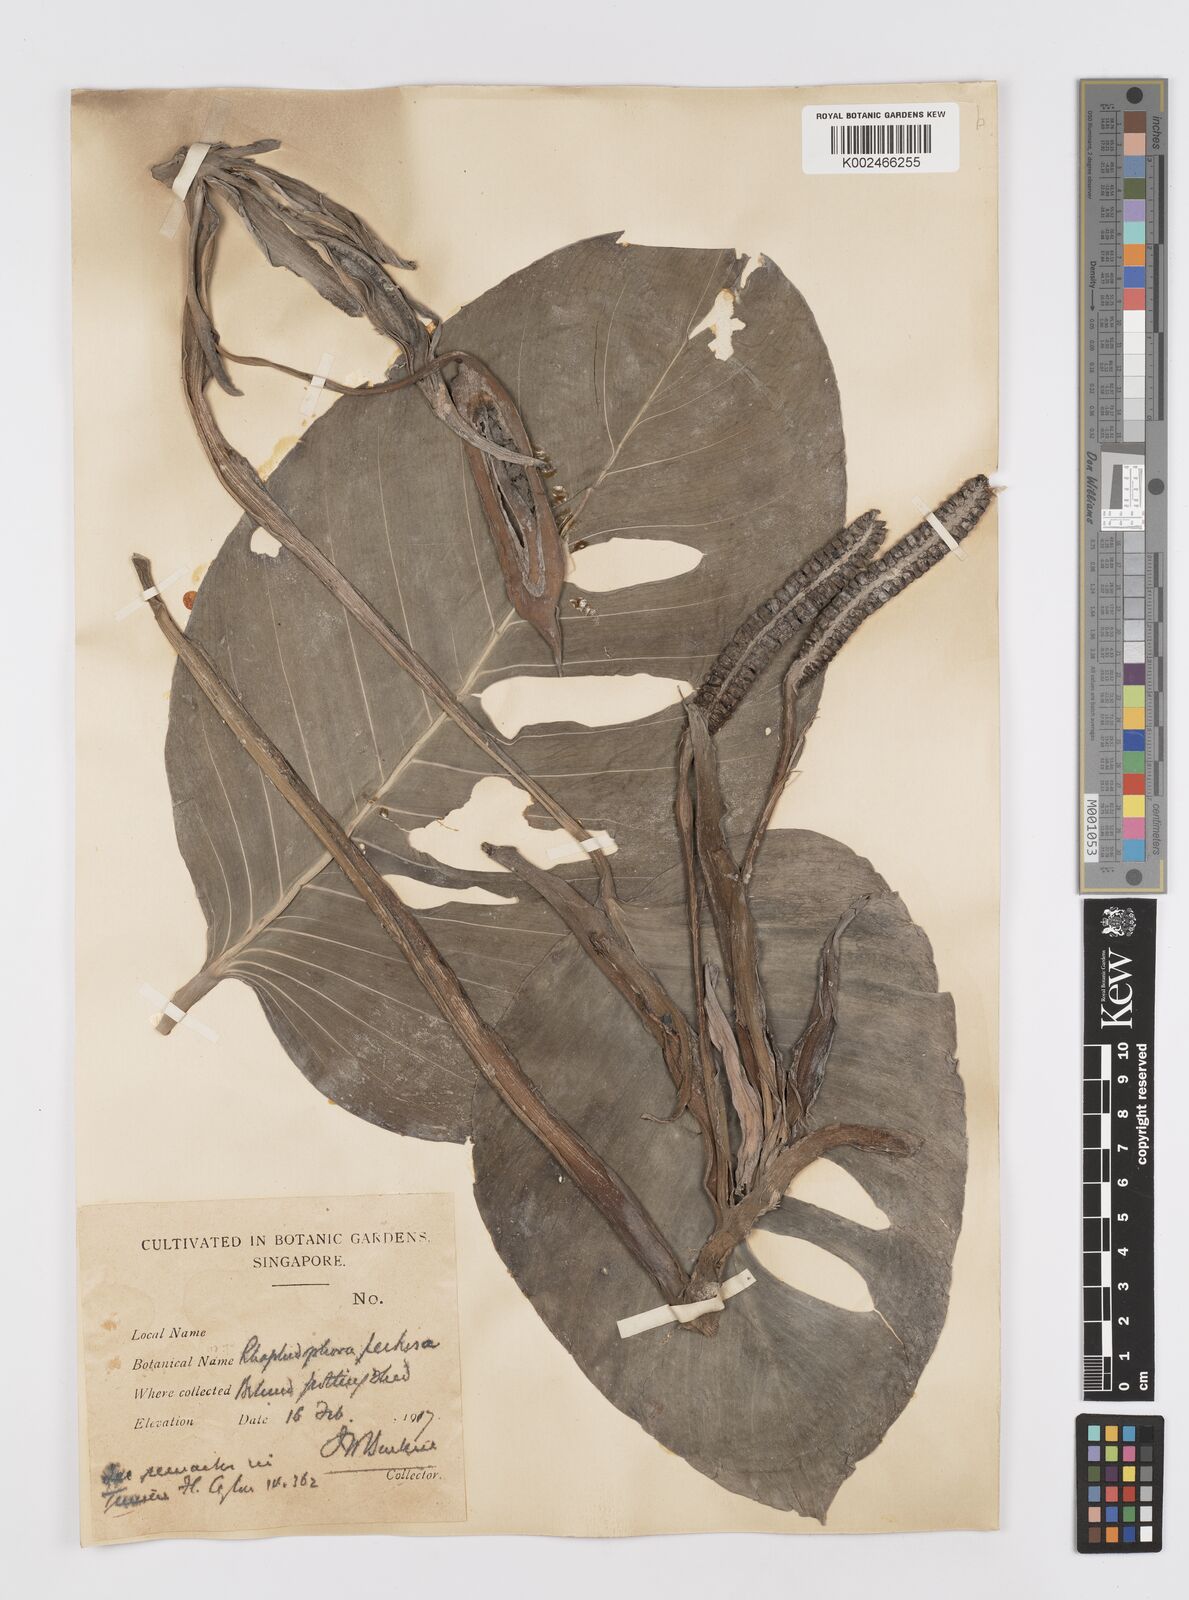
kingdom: Plantae
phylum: Tracheophyta
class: Liliopsida
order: Alismatales
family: Araceae
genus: Rhaphidophora
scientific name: Rhaphidophora pertusa
